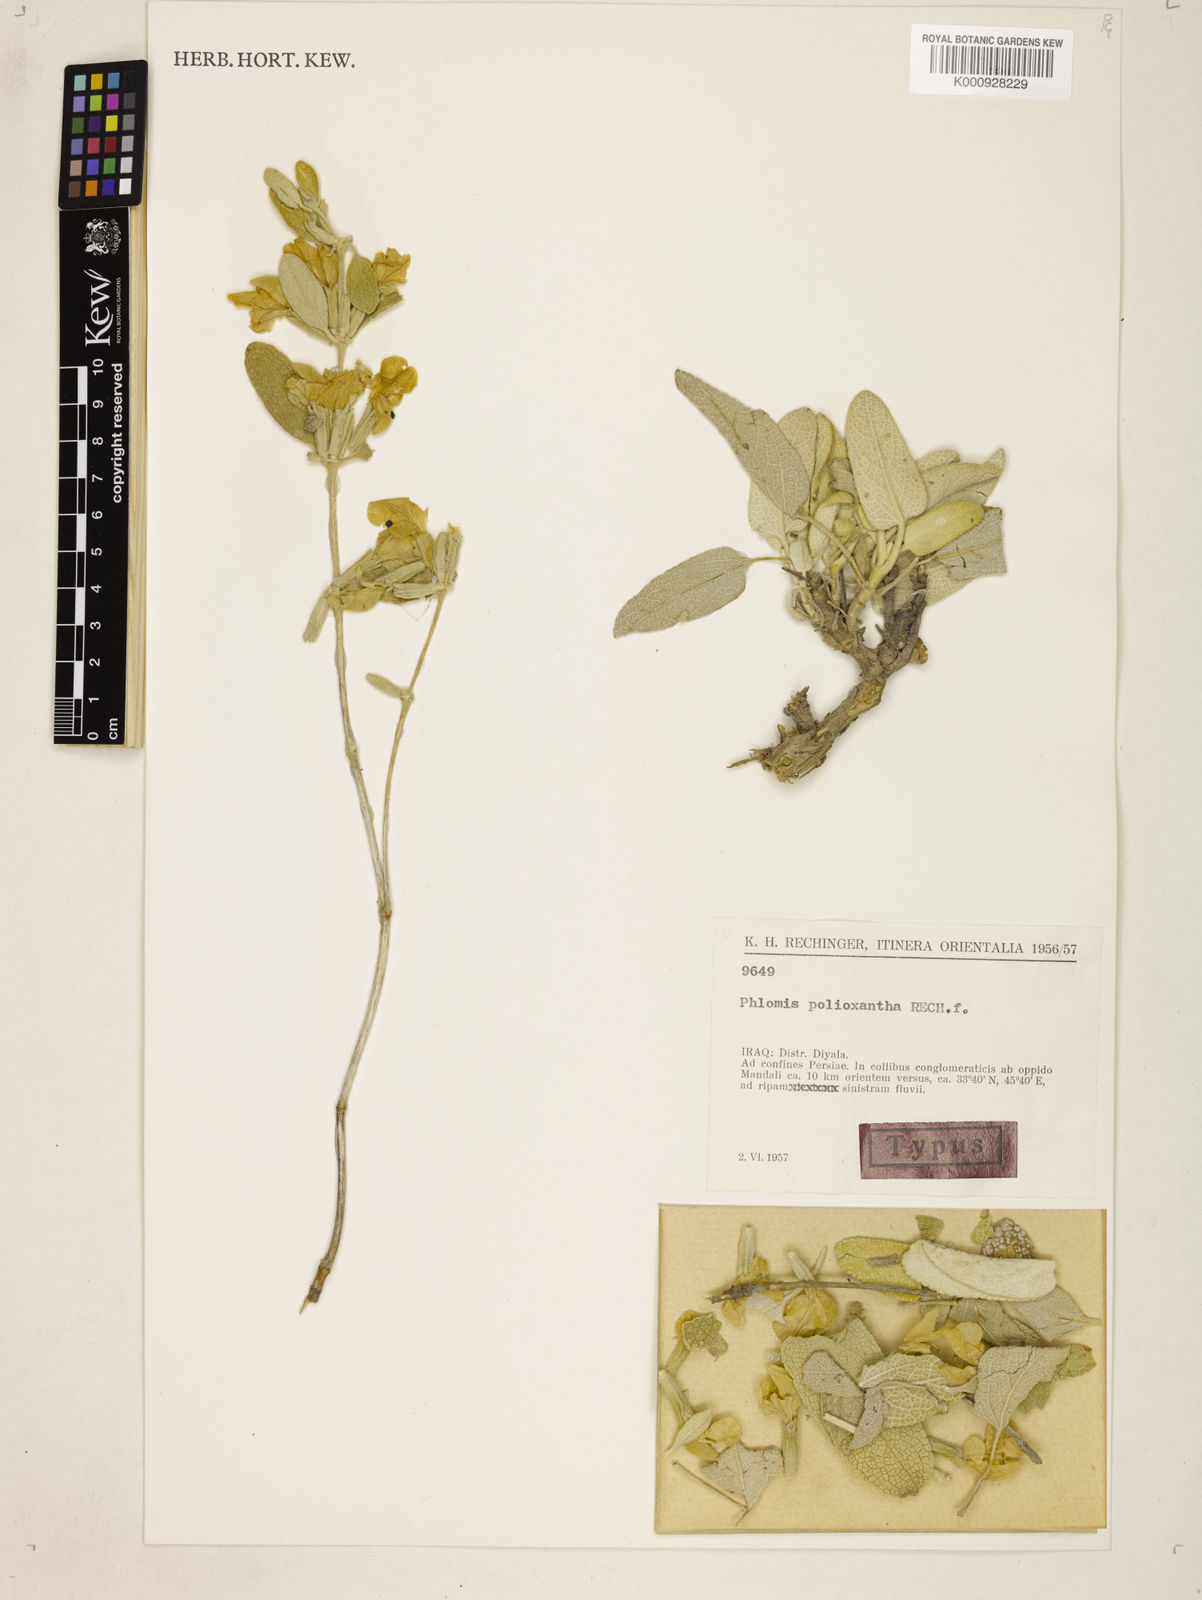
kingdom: Plantae
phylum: Tracheophyta
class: Magnoliopsida
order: Lamiales
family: Lamiaceae
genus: Phlomis
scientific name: Phlomis polioxantha
